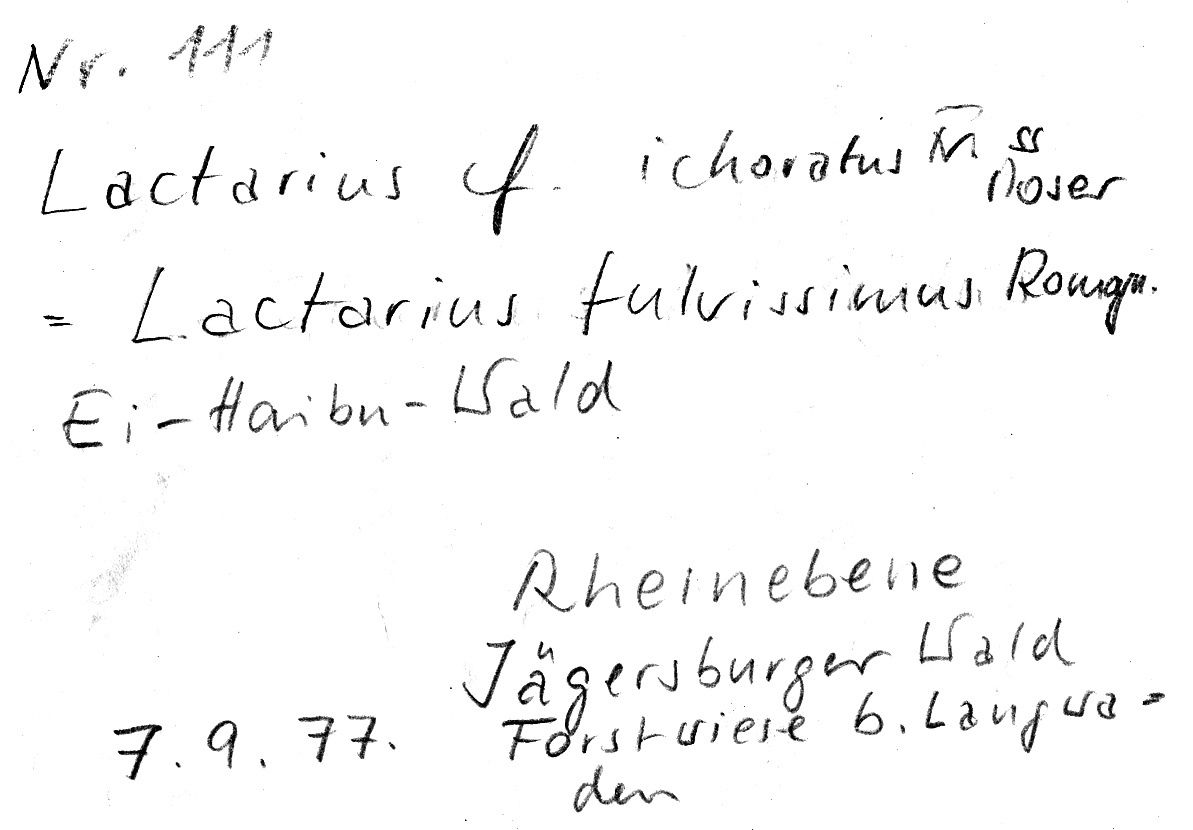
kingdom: Fungi
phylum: Basidiomycota
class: Agaricomycetes
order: Russulales
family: Russulaceae
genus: Lactarius
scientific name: Lactarius fulvissimus
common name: Tawny milkcap
